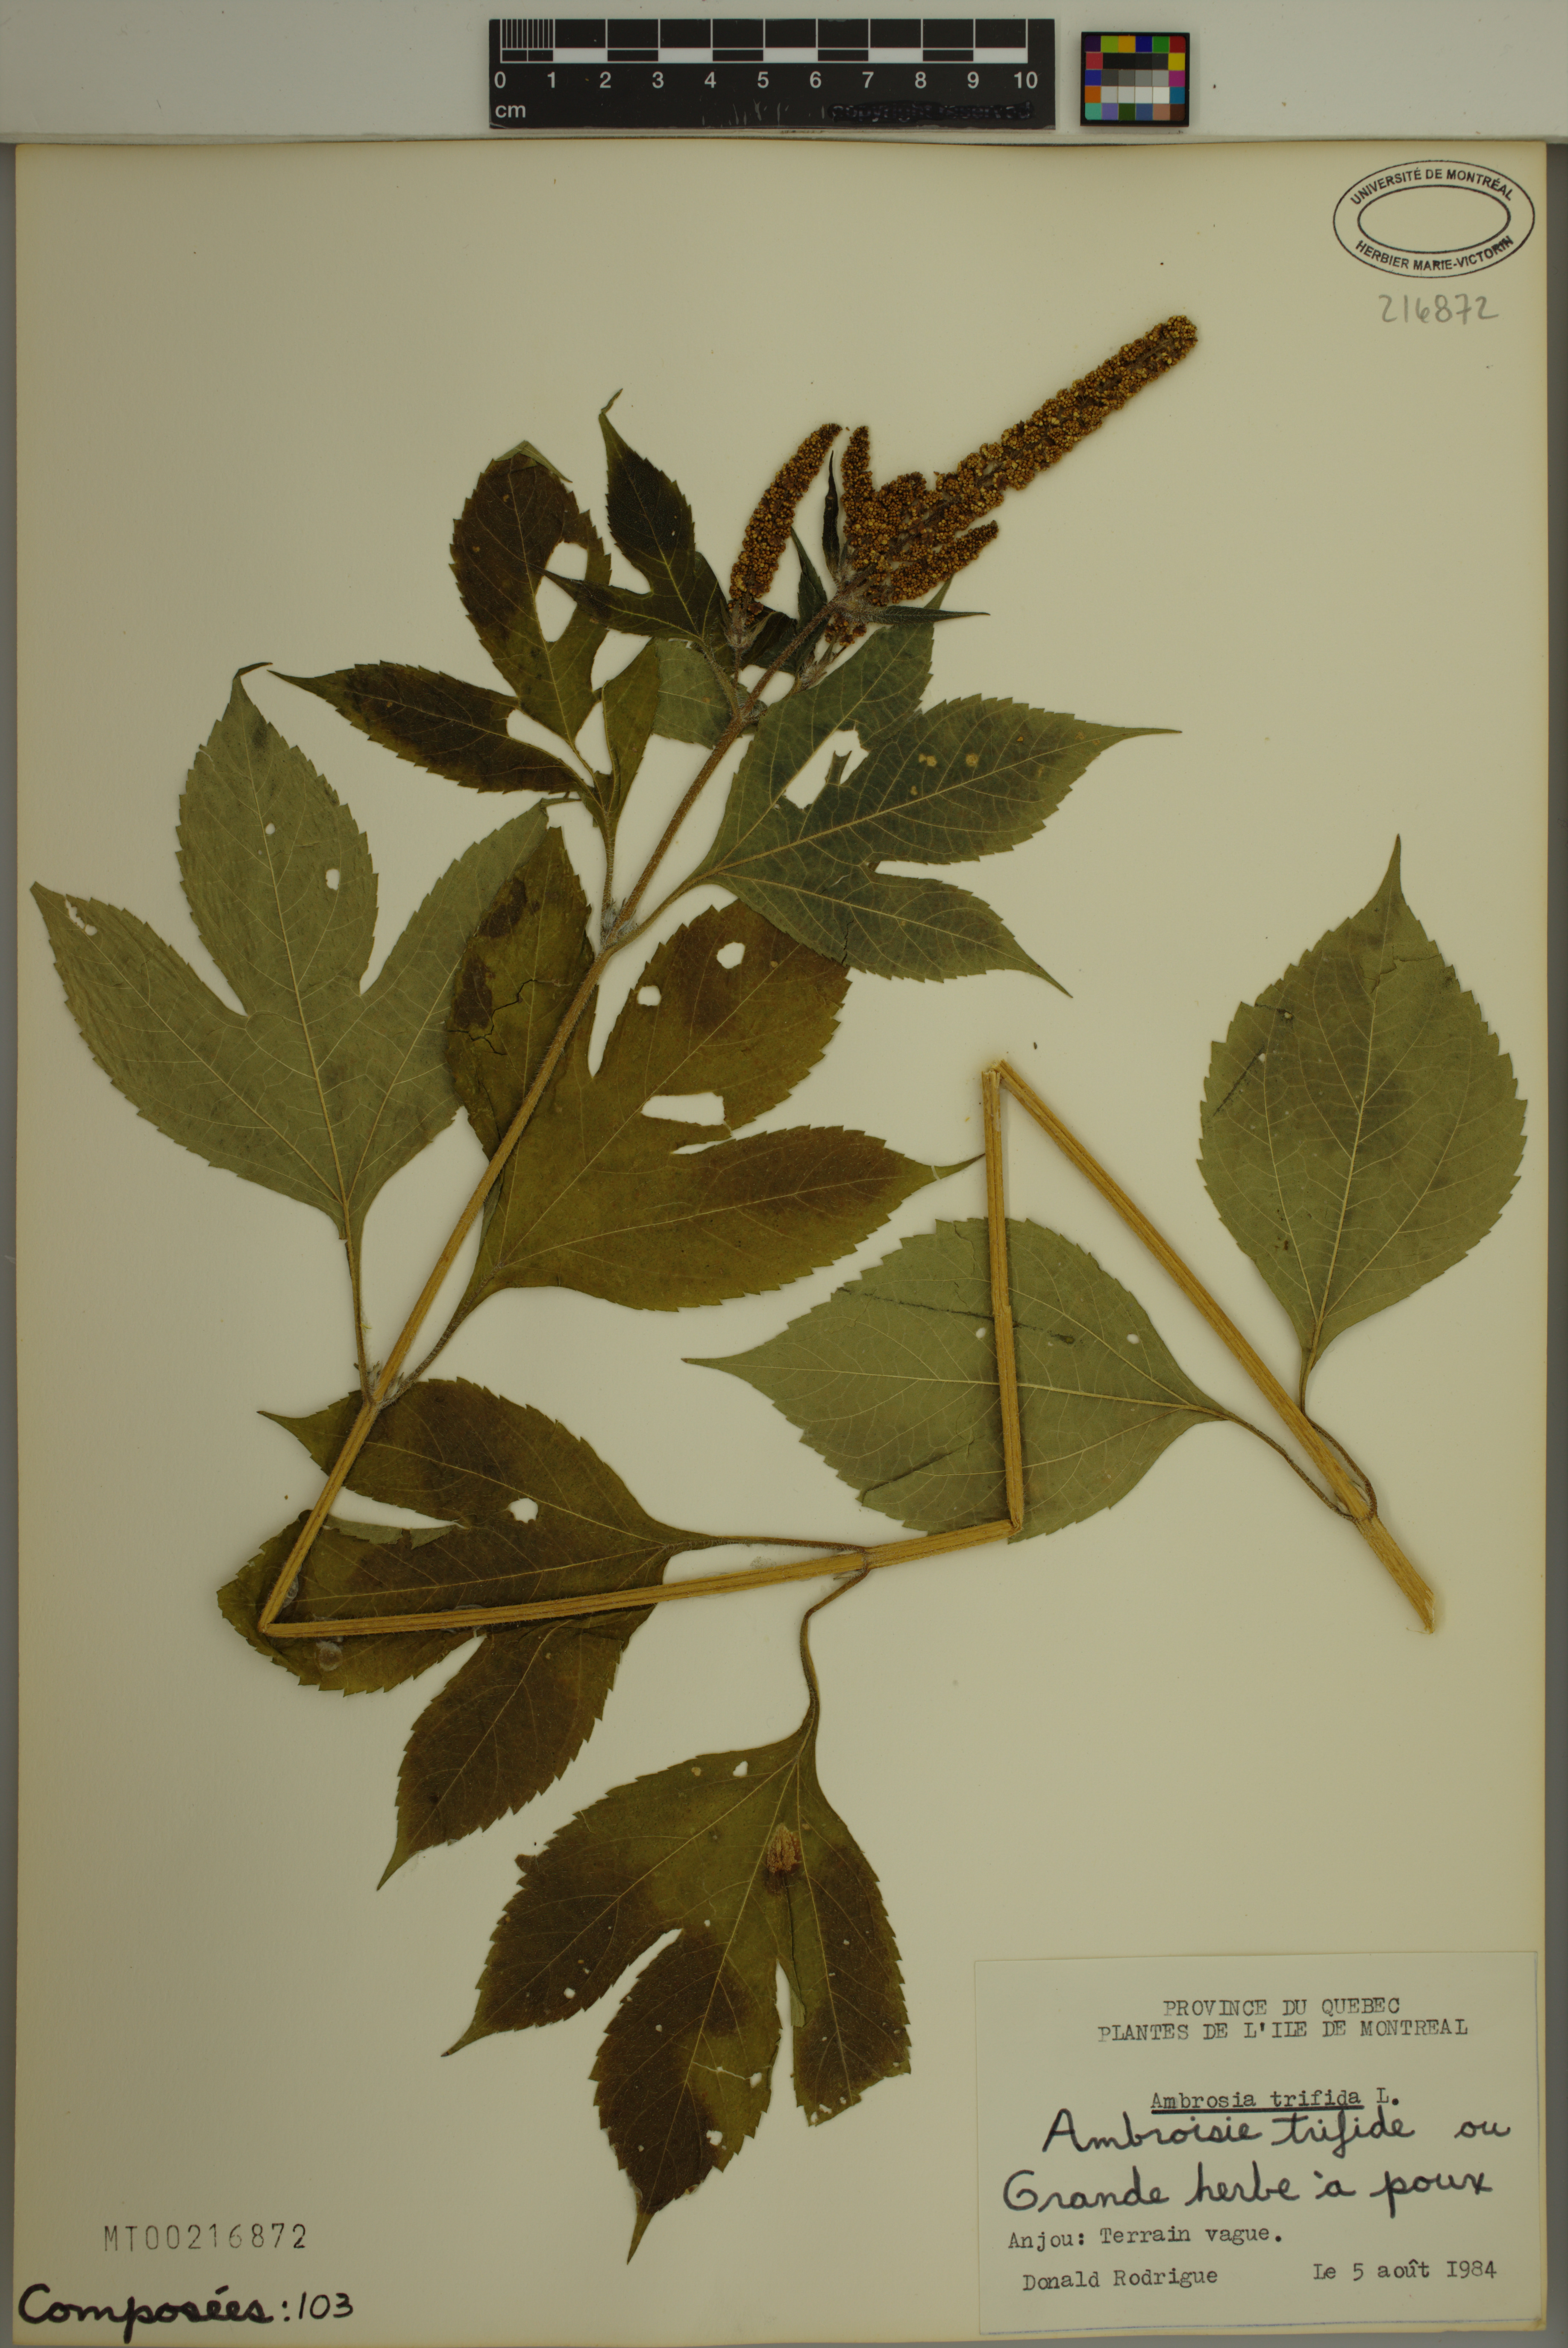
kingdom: Plantae
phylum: Tracheophyta
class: Magnoliopsida
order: Asterales
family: Asteraceae
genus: Ambrosia
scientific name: Ambrosia trifida
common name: Giant ragweed
